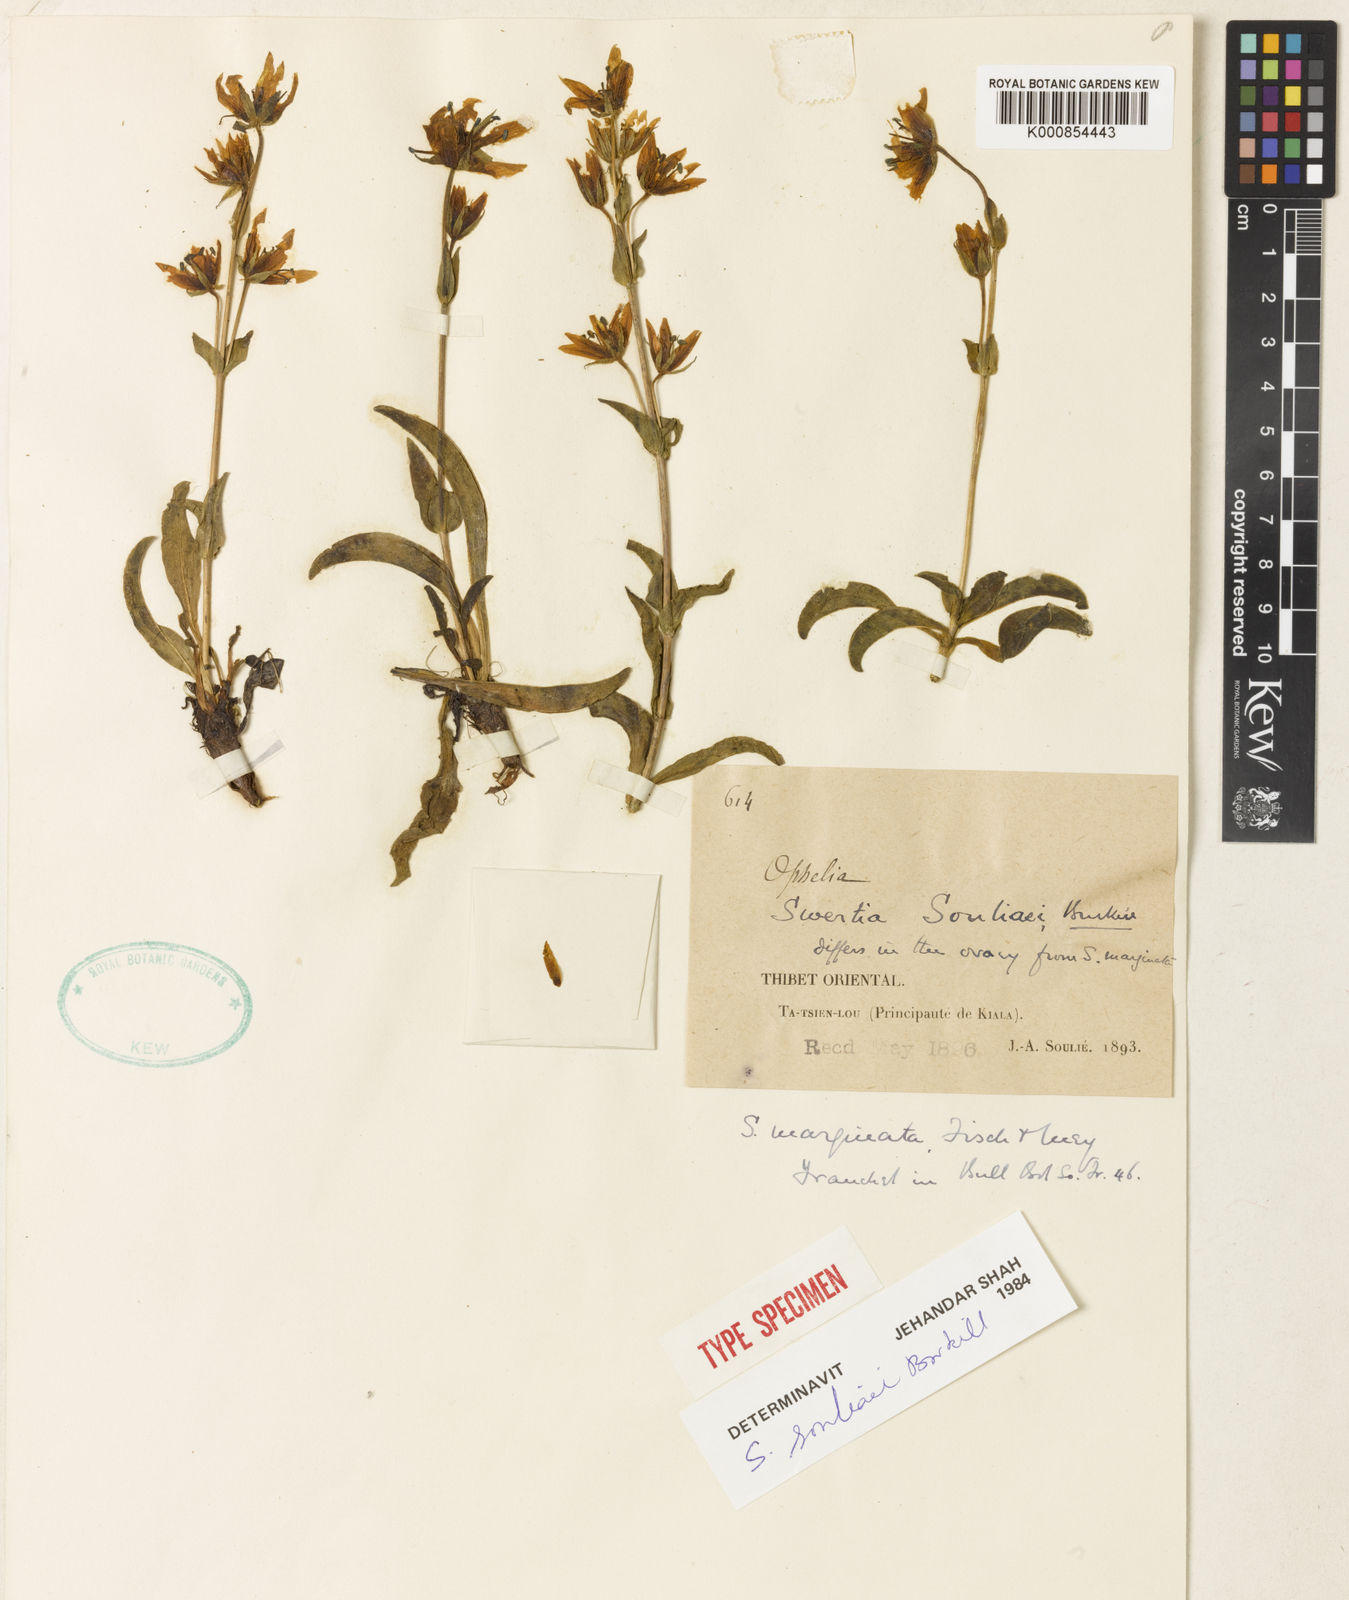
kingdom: Plantae
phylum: Tracheophyta
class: Magnoliopsida
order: Gentianales
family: Gentianaceae
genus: Swertia
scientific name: Swertia
